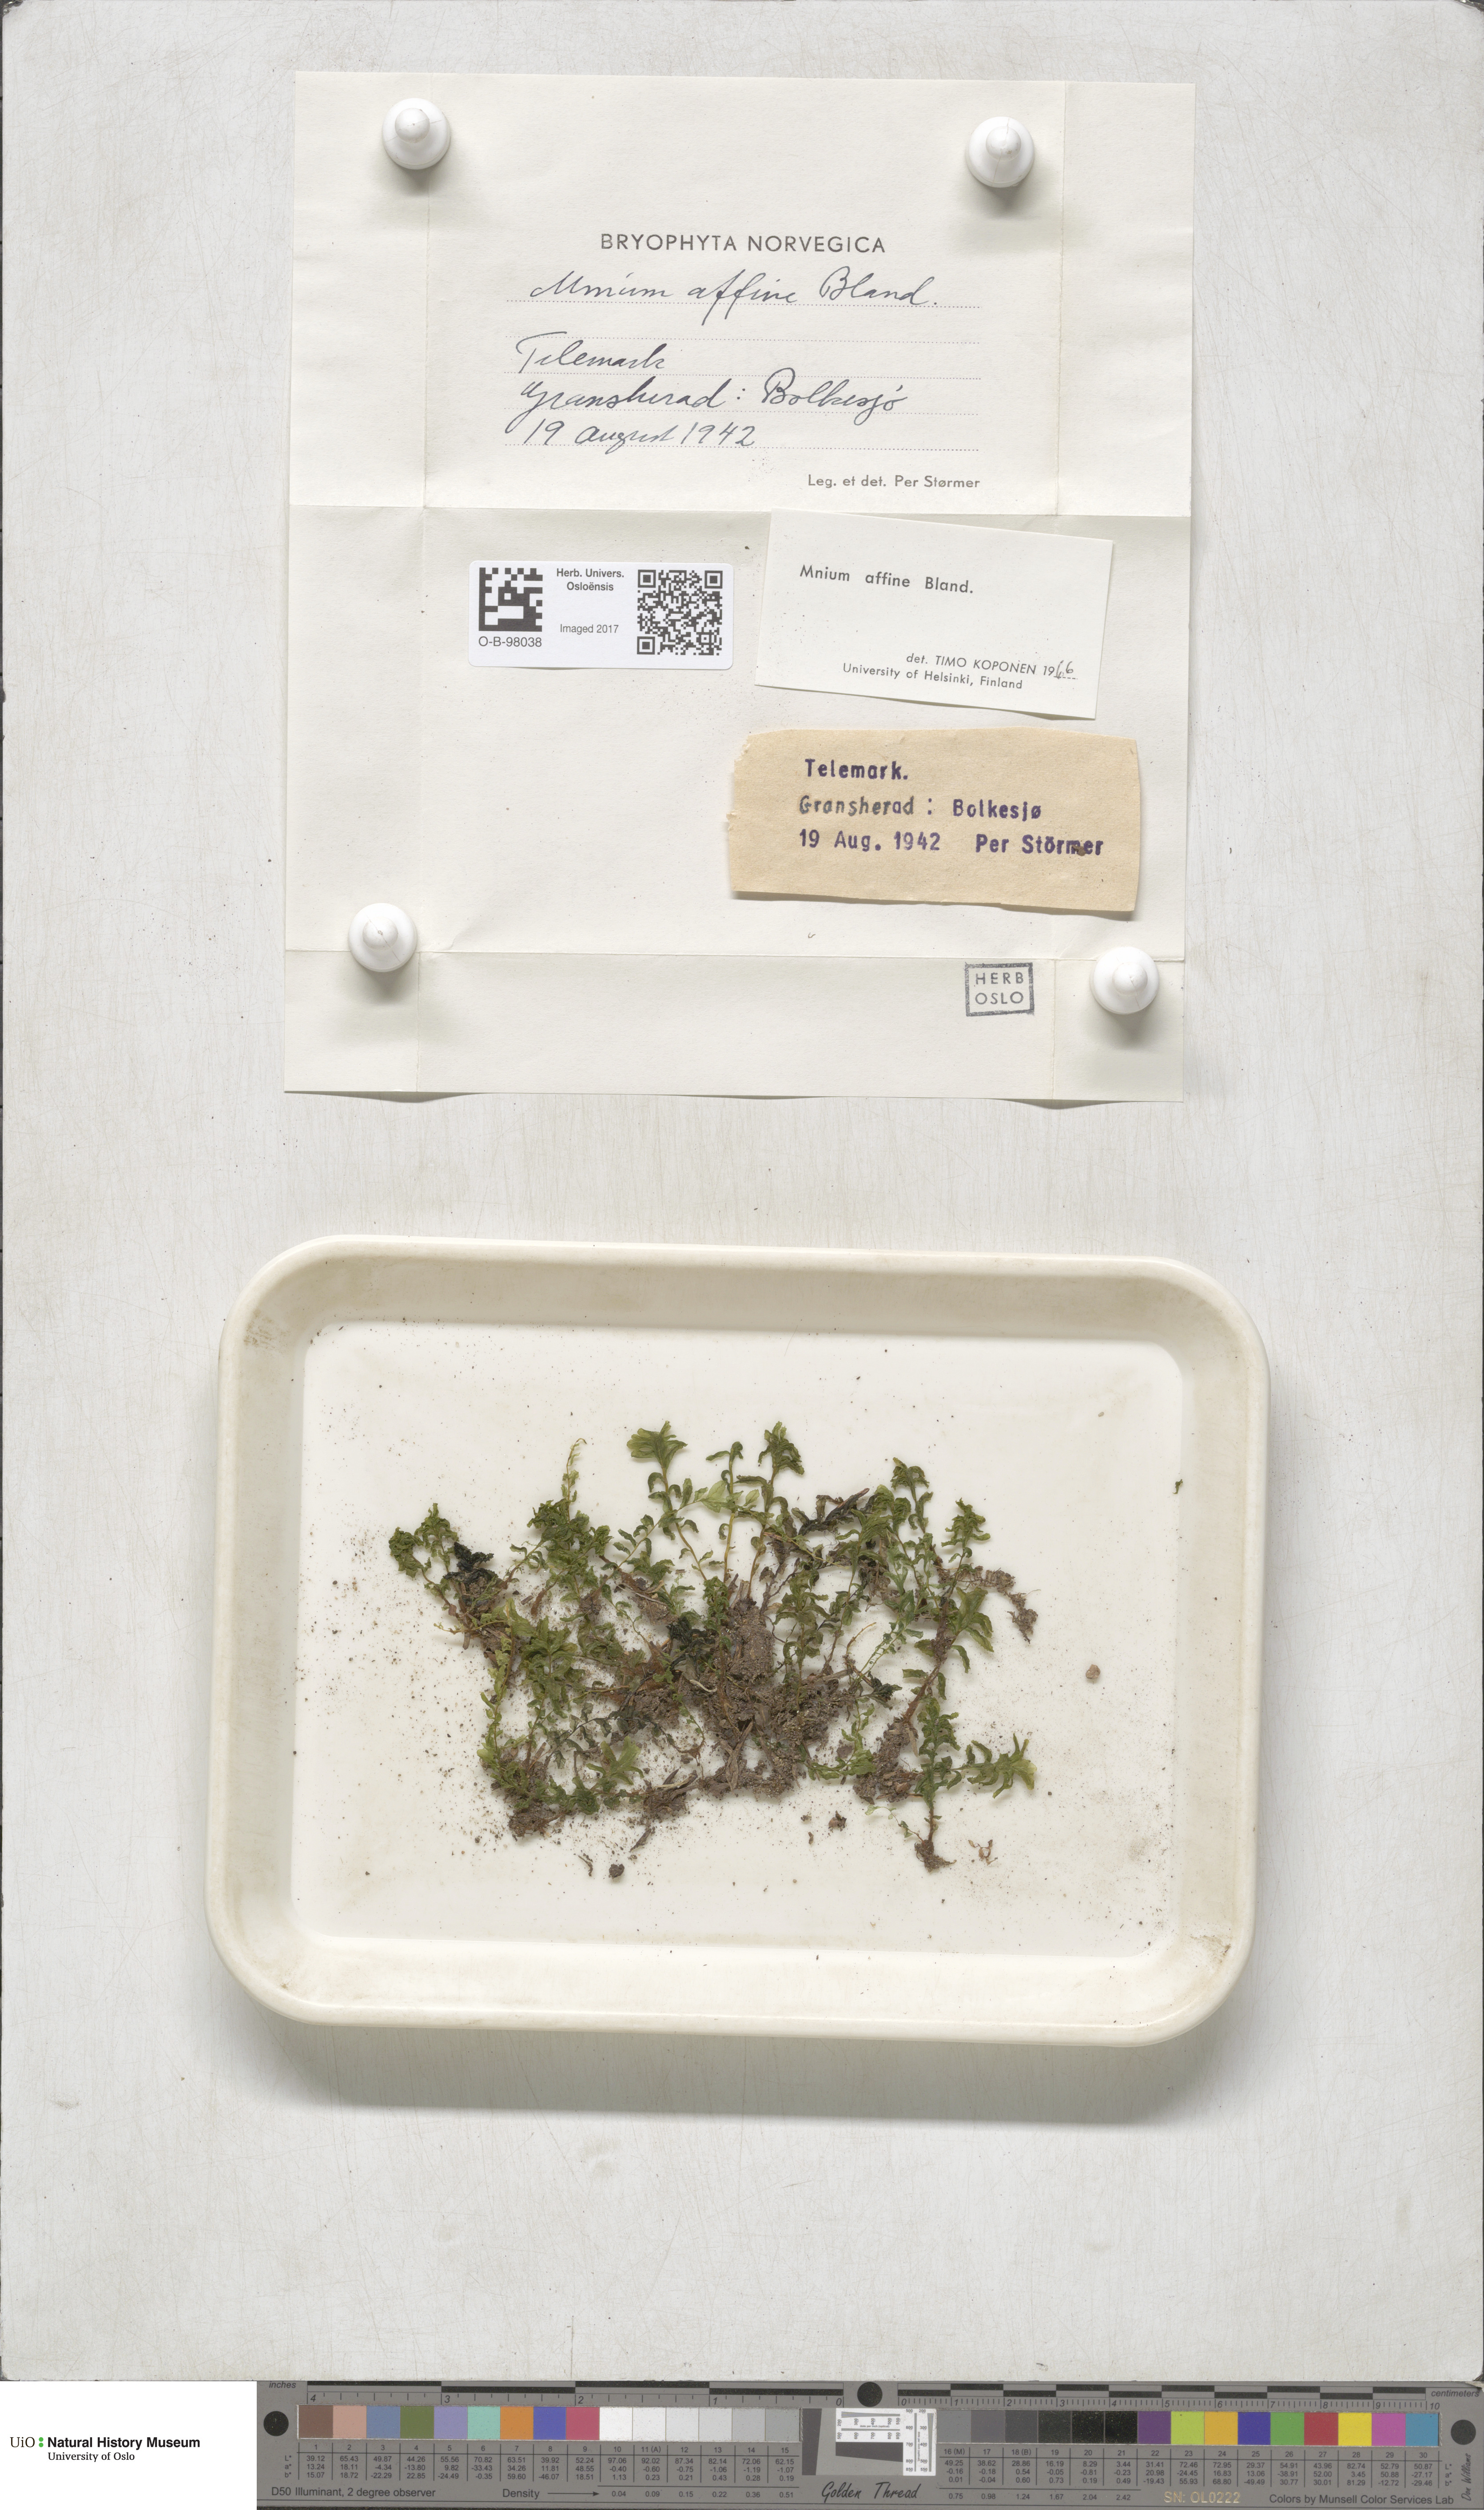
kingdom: Plantae
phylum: Bryophyta
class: Bryopsida
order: Bryales
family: Mniaceae
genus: Plagiomnium
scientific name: Plagiomnium affine
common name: Many-fruited thyme-moss
